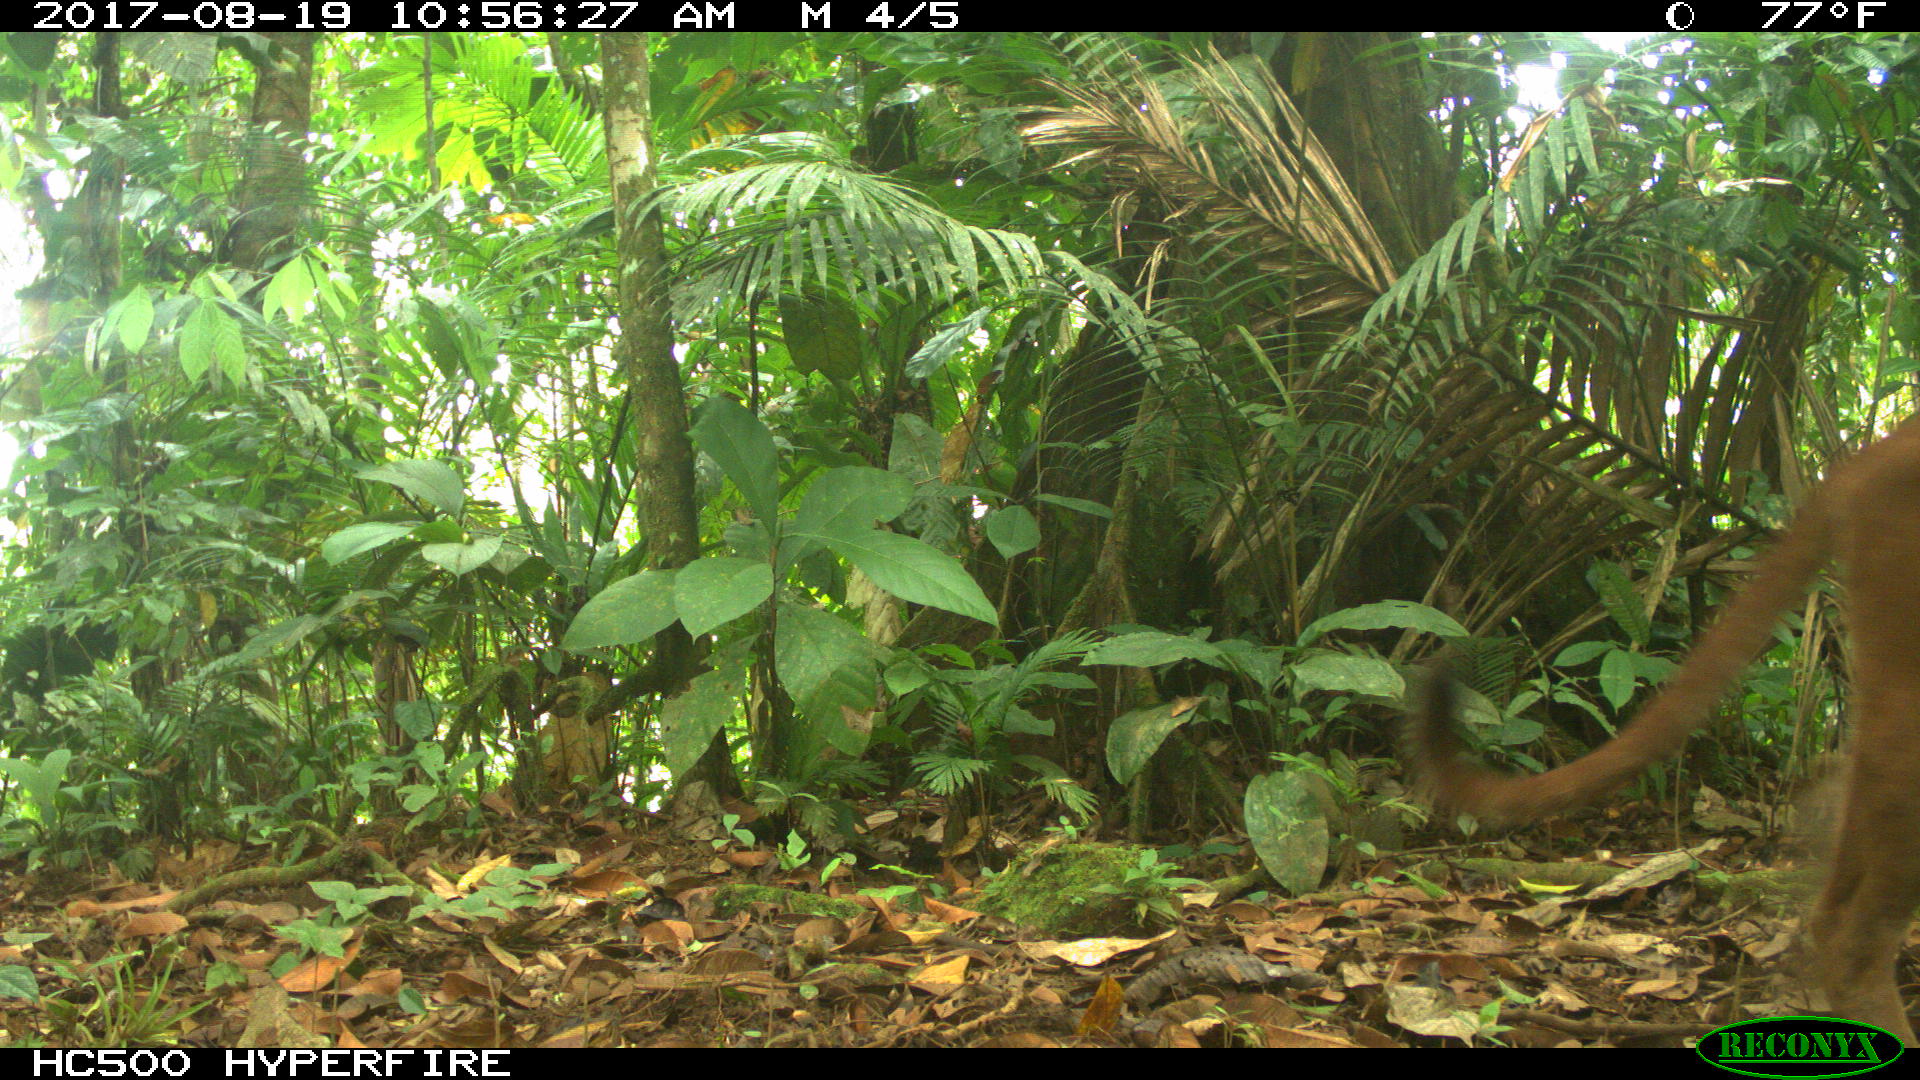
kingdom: Animalia
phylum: Chordata
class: Mammalia
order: Carnivora
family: Felidae
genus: Puma
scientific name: Puma concolor
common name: Puma
